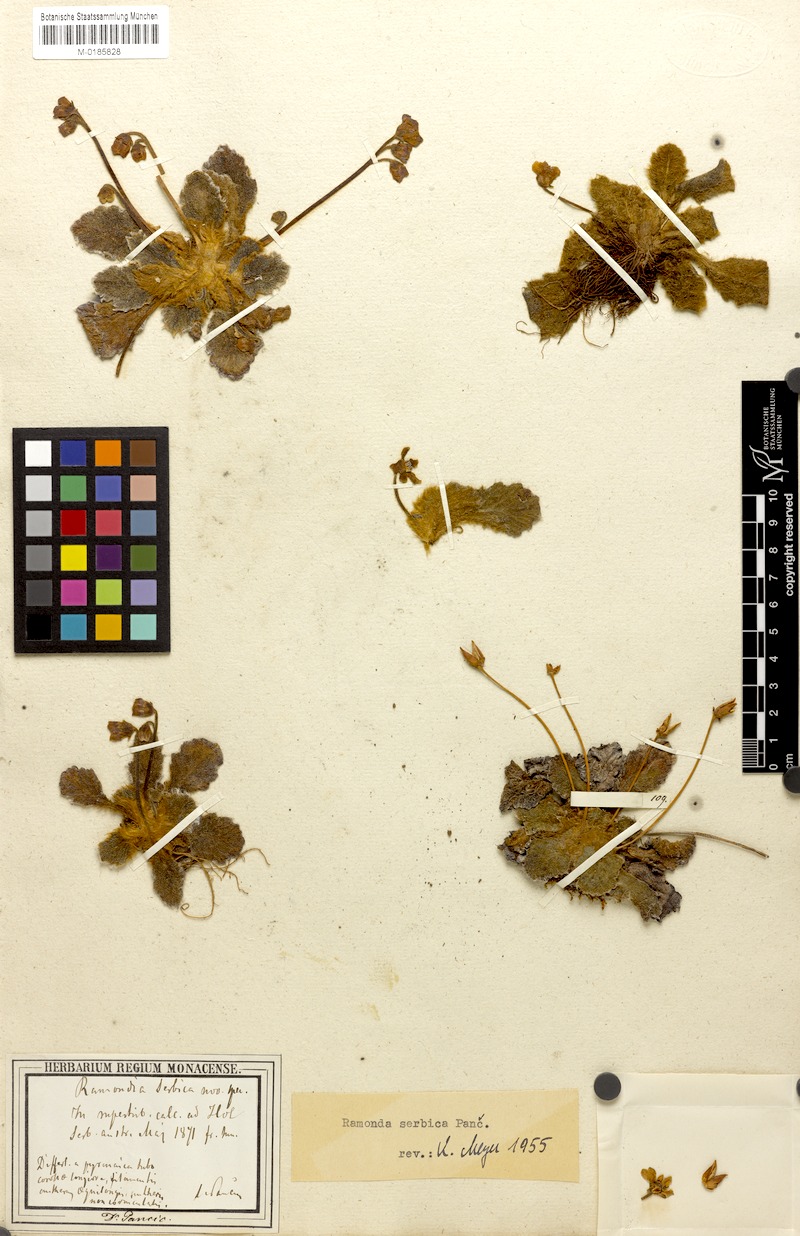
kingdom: Plantae
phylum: Tracheophyta
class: Magnoliopsida
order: Lamiales
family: Gesneriaceae
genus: Ramonda
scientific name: Ramonda serbica
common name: Serbian phoenix flower
